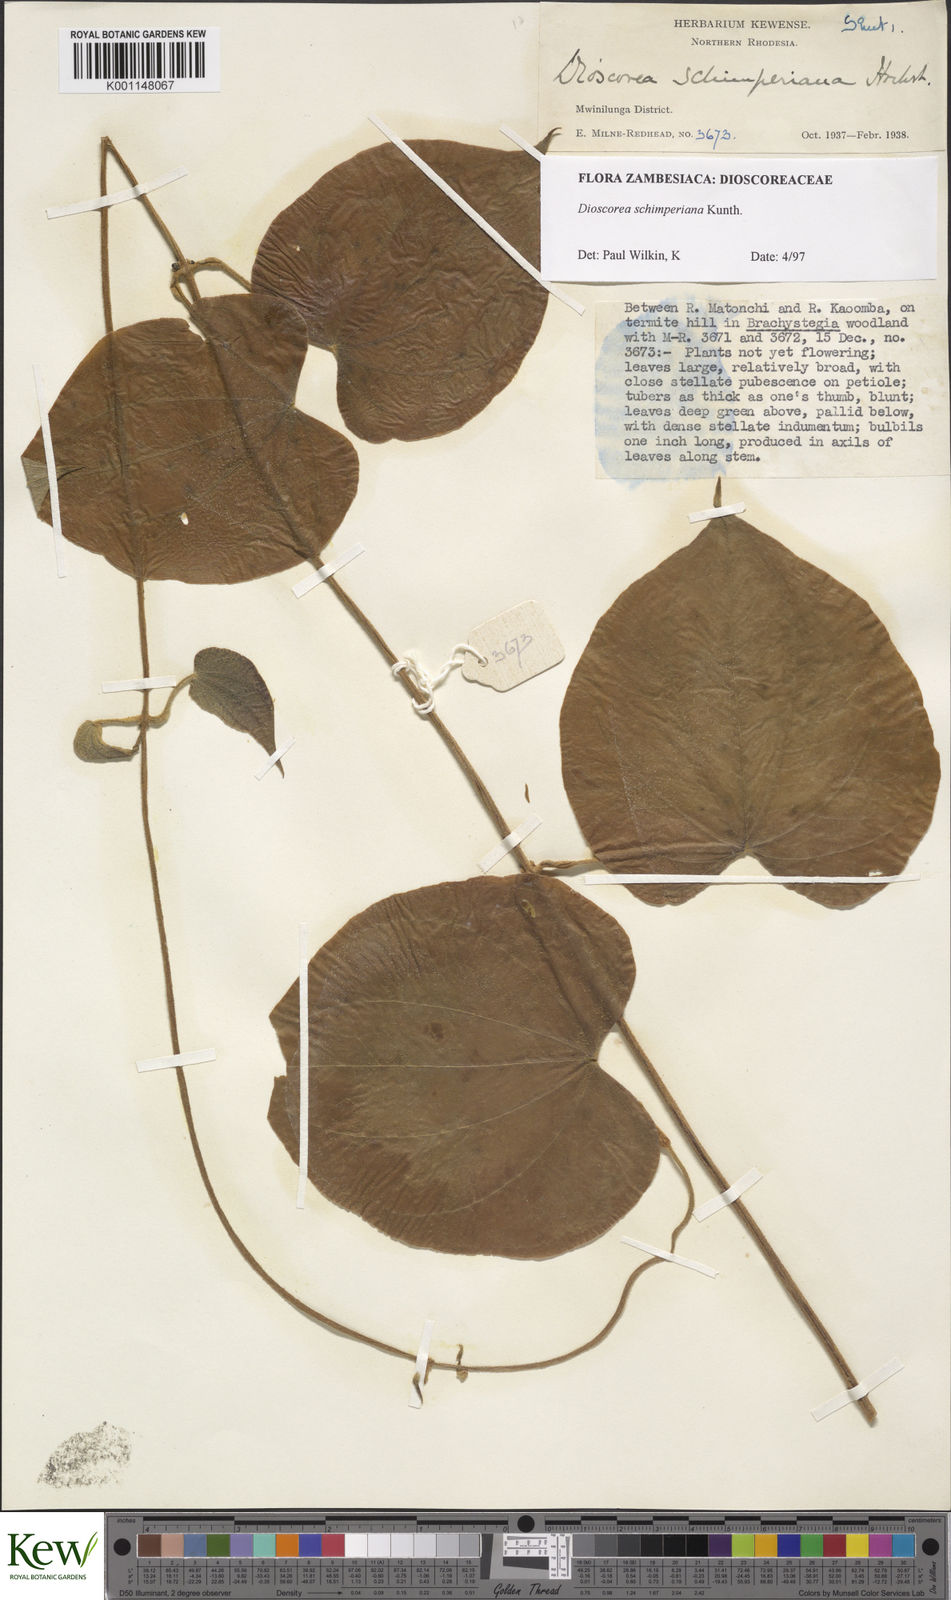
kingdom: Plantae
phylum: Tracheophyta
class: Liliopsida
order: Dioscoreales
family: Dioscoreaceae
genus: Dioscorea
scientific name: Dioscorea schimperiana
